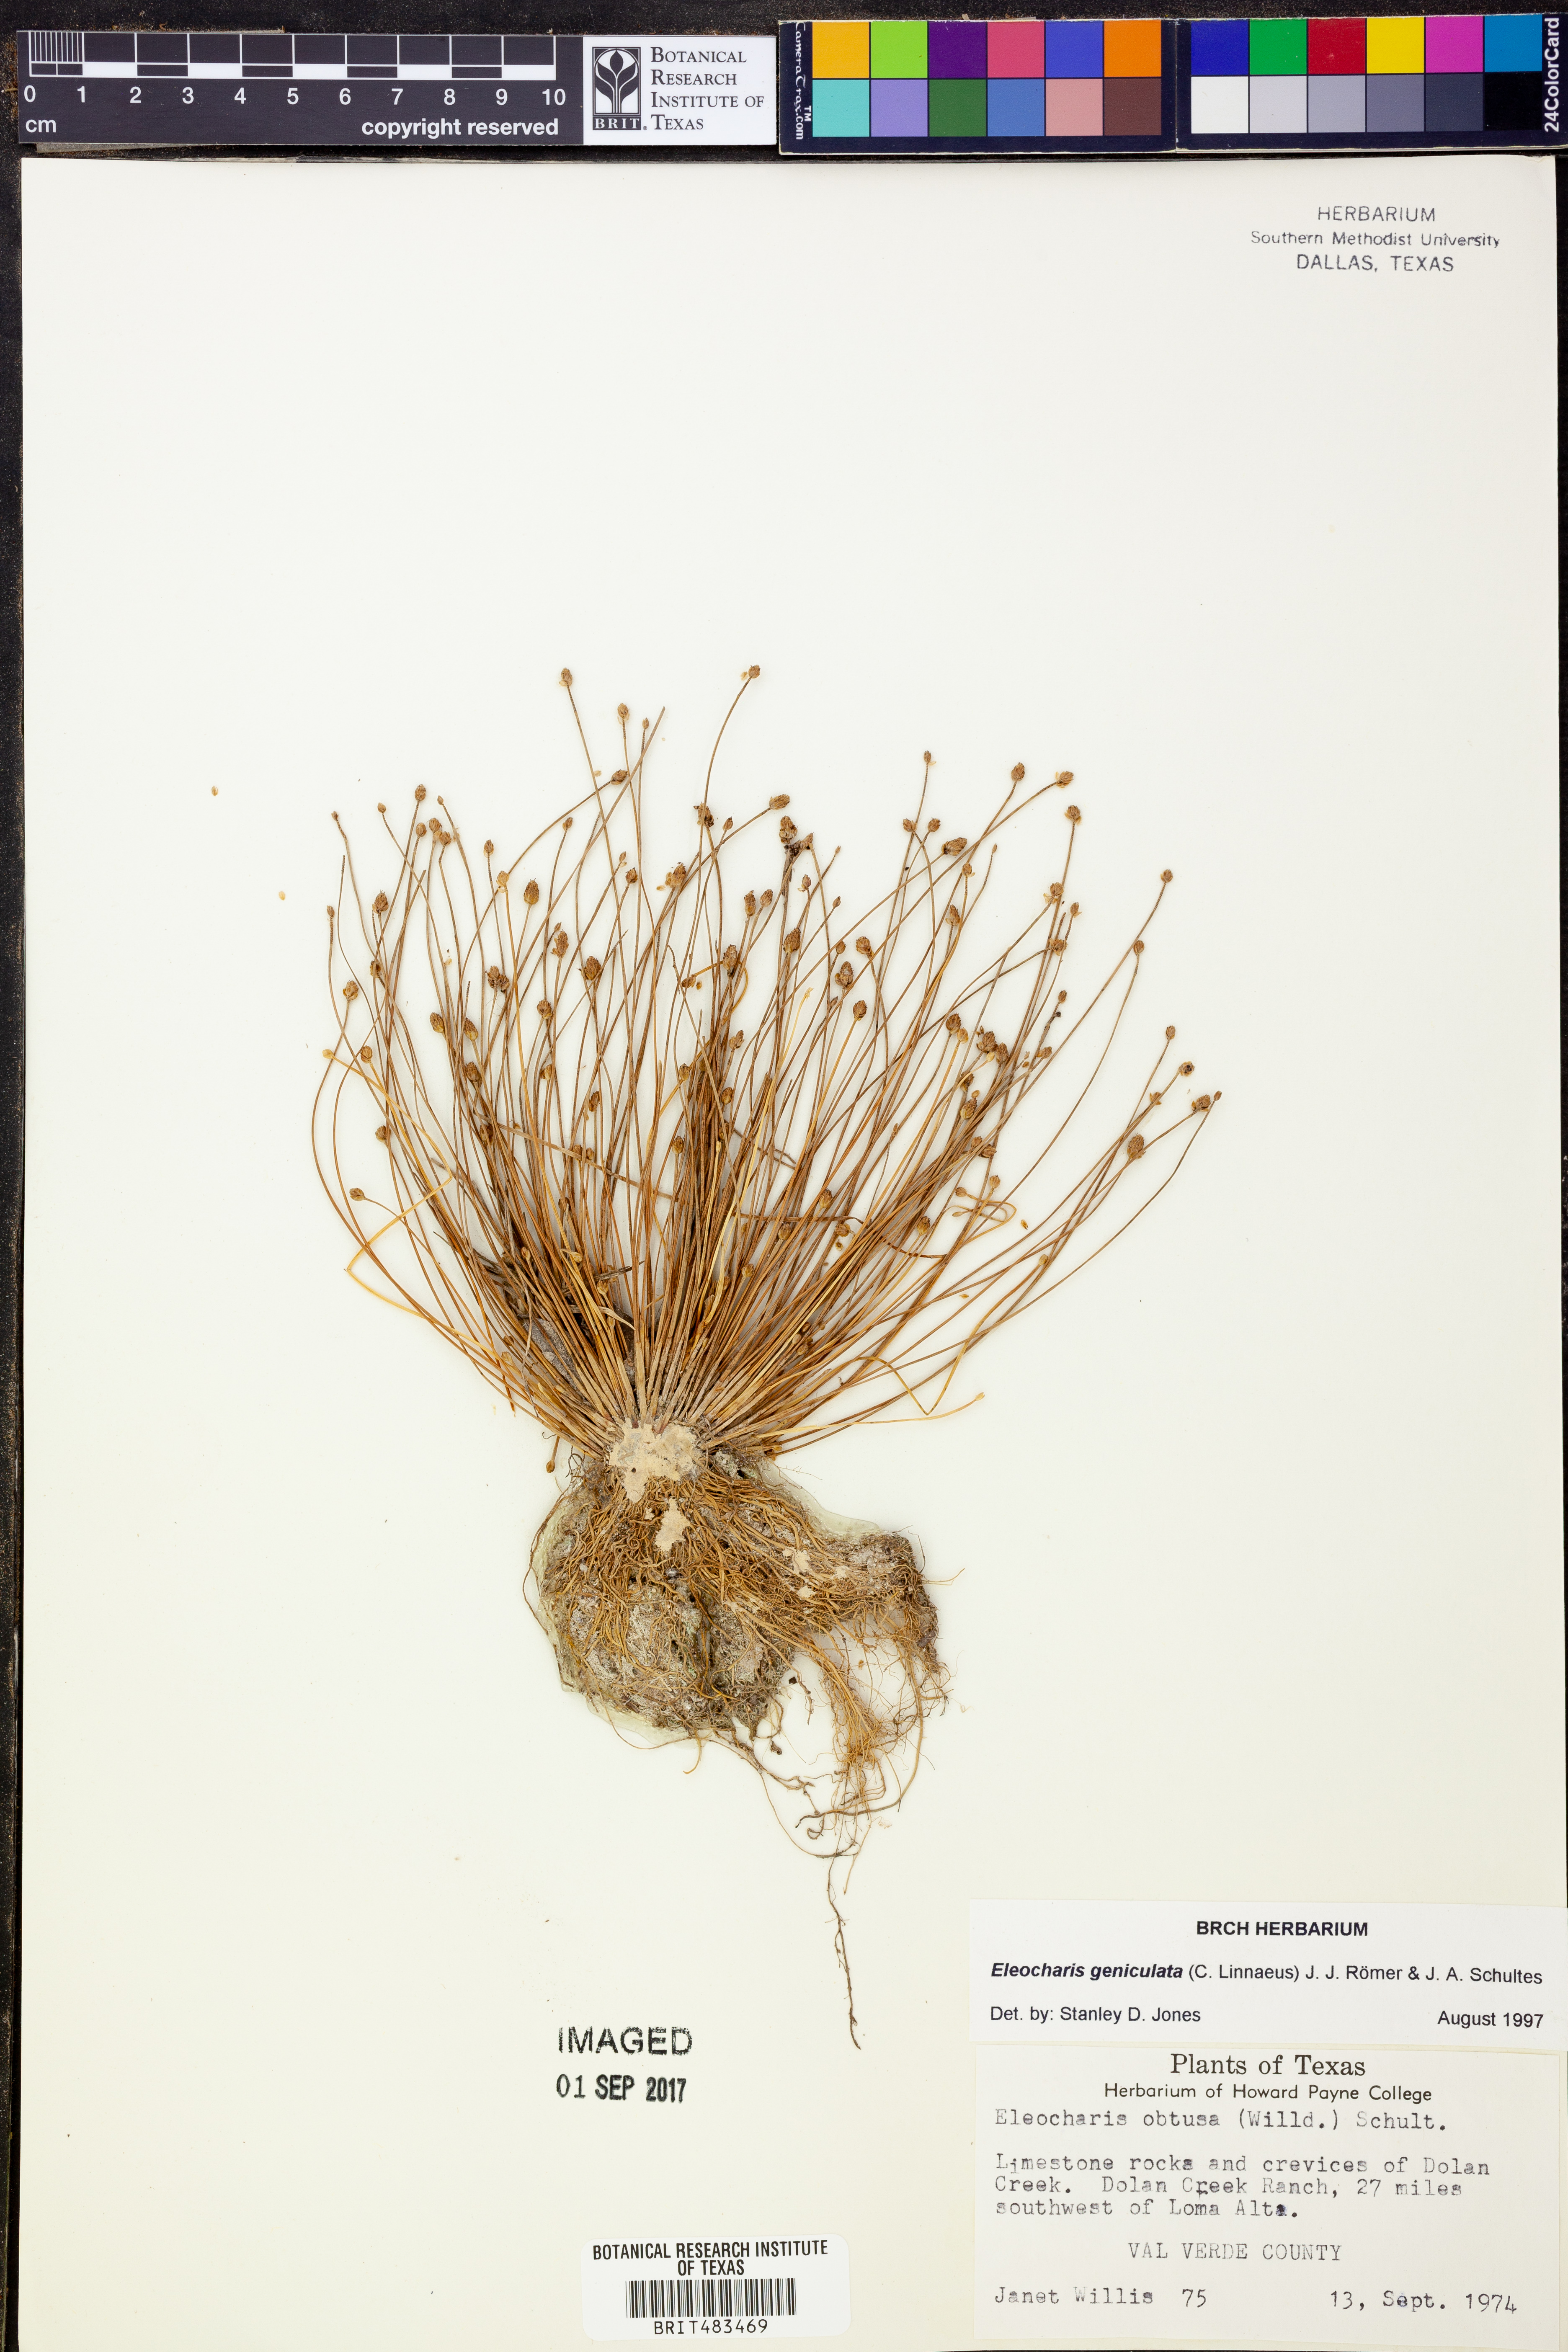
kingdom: Plantae
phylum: Tracheophyta
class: Liliopsida
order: Poales
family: Cyperaceae
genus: Eleocharis
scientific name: Eleocharis geniculata
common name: Canada spikesedge
